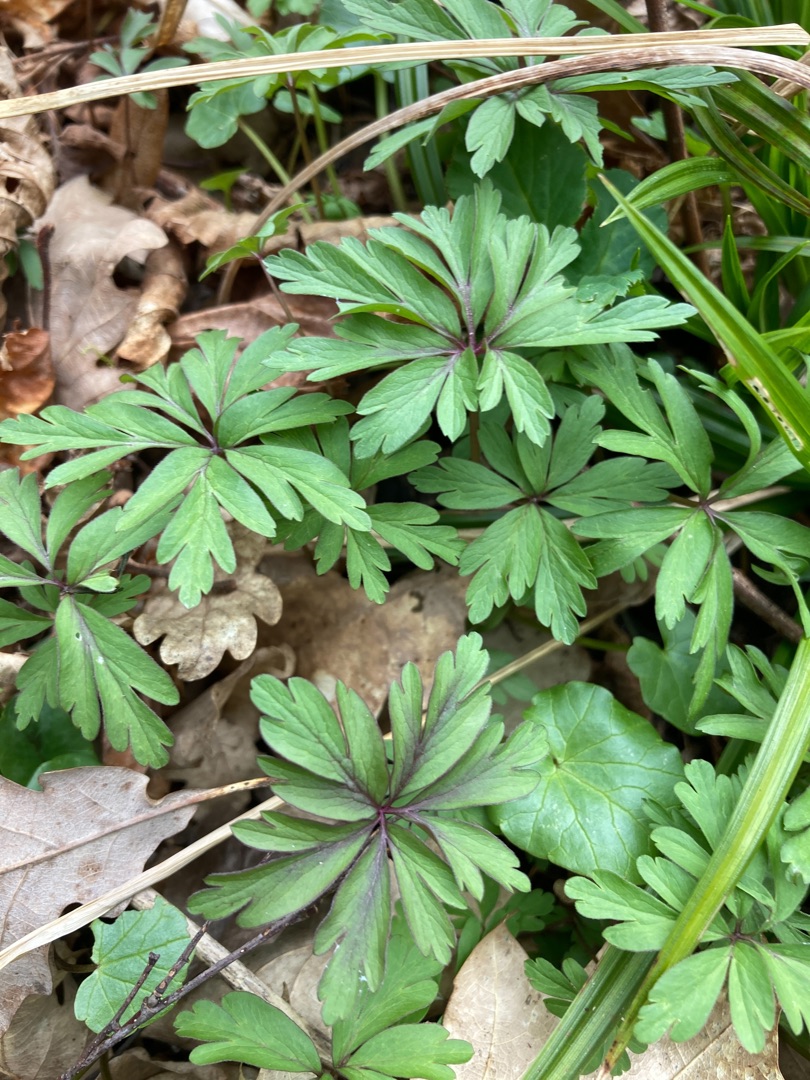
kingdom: Plantae
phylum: Tracheophyta
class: Magnoliopsida
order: Ranunculales
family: Ranunculaceae
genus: Anemone
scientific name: Anemone ranunculoides
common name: Gul anemone
